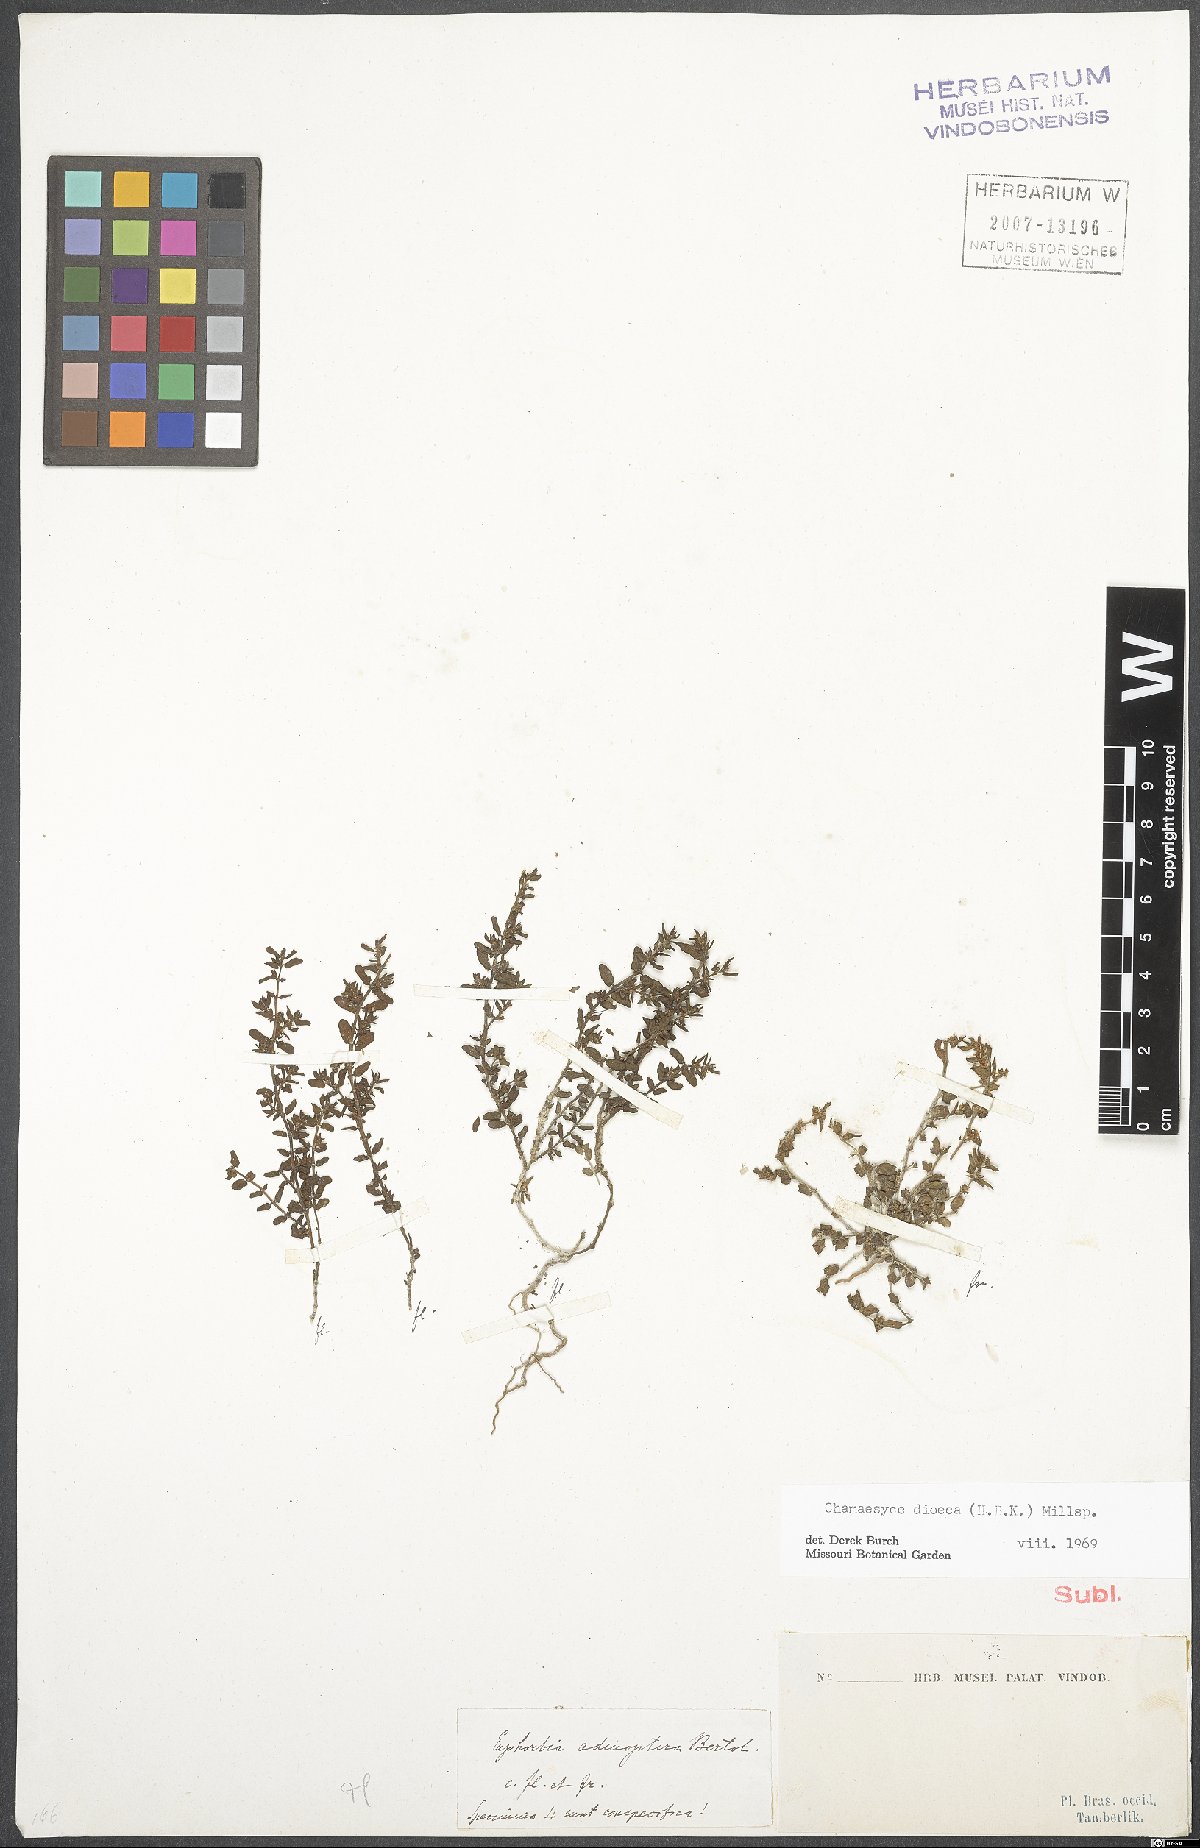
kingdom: Plantae
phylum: Tracheophyta
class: Magnoliopsida
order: Malpighiales
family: Euphorbiaceae
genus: Euphorbia
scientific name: Euphorbia dioeca
